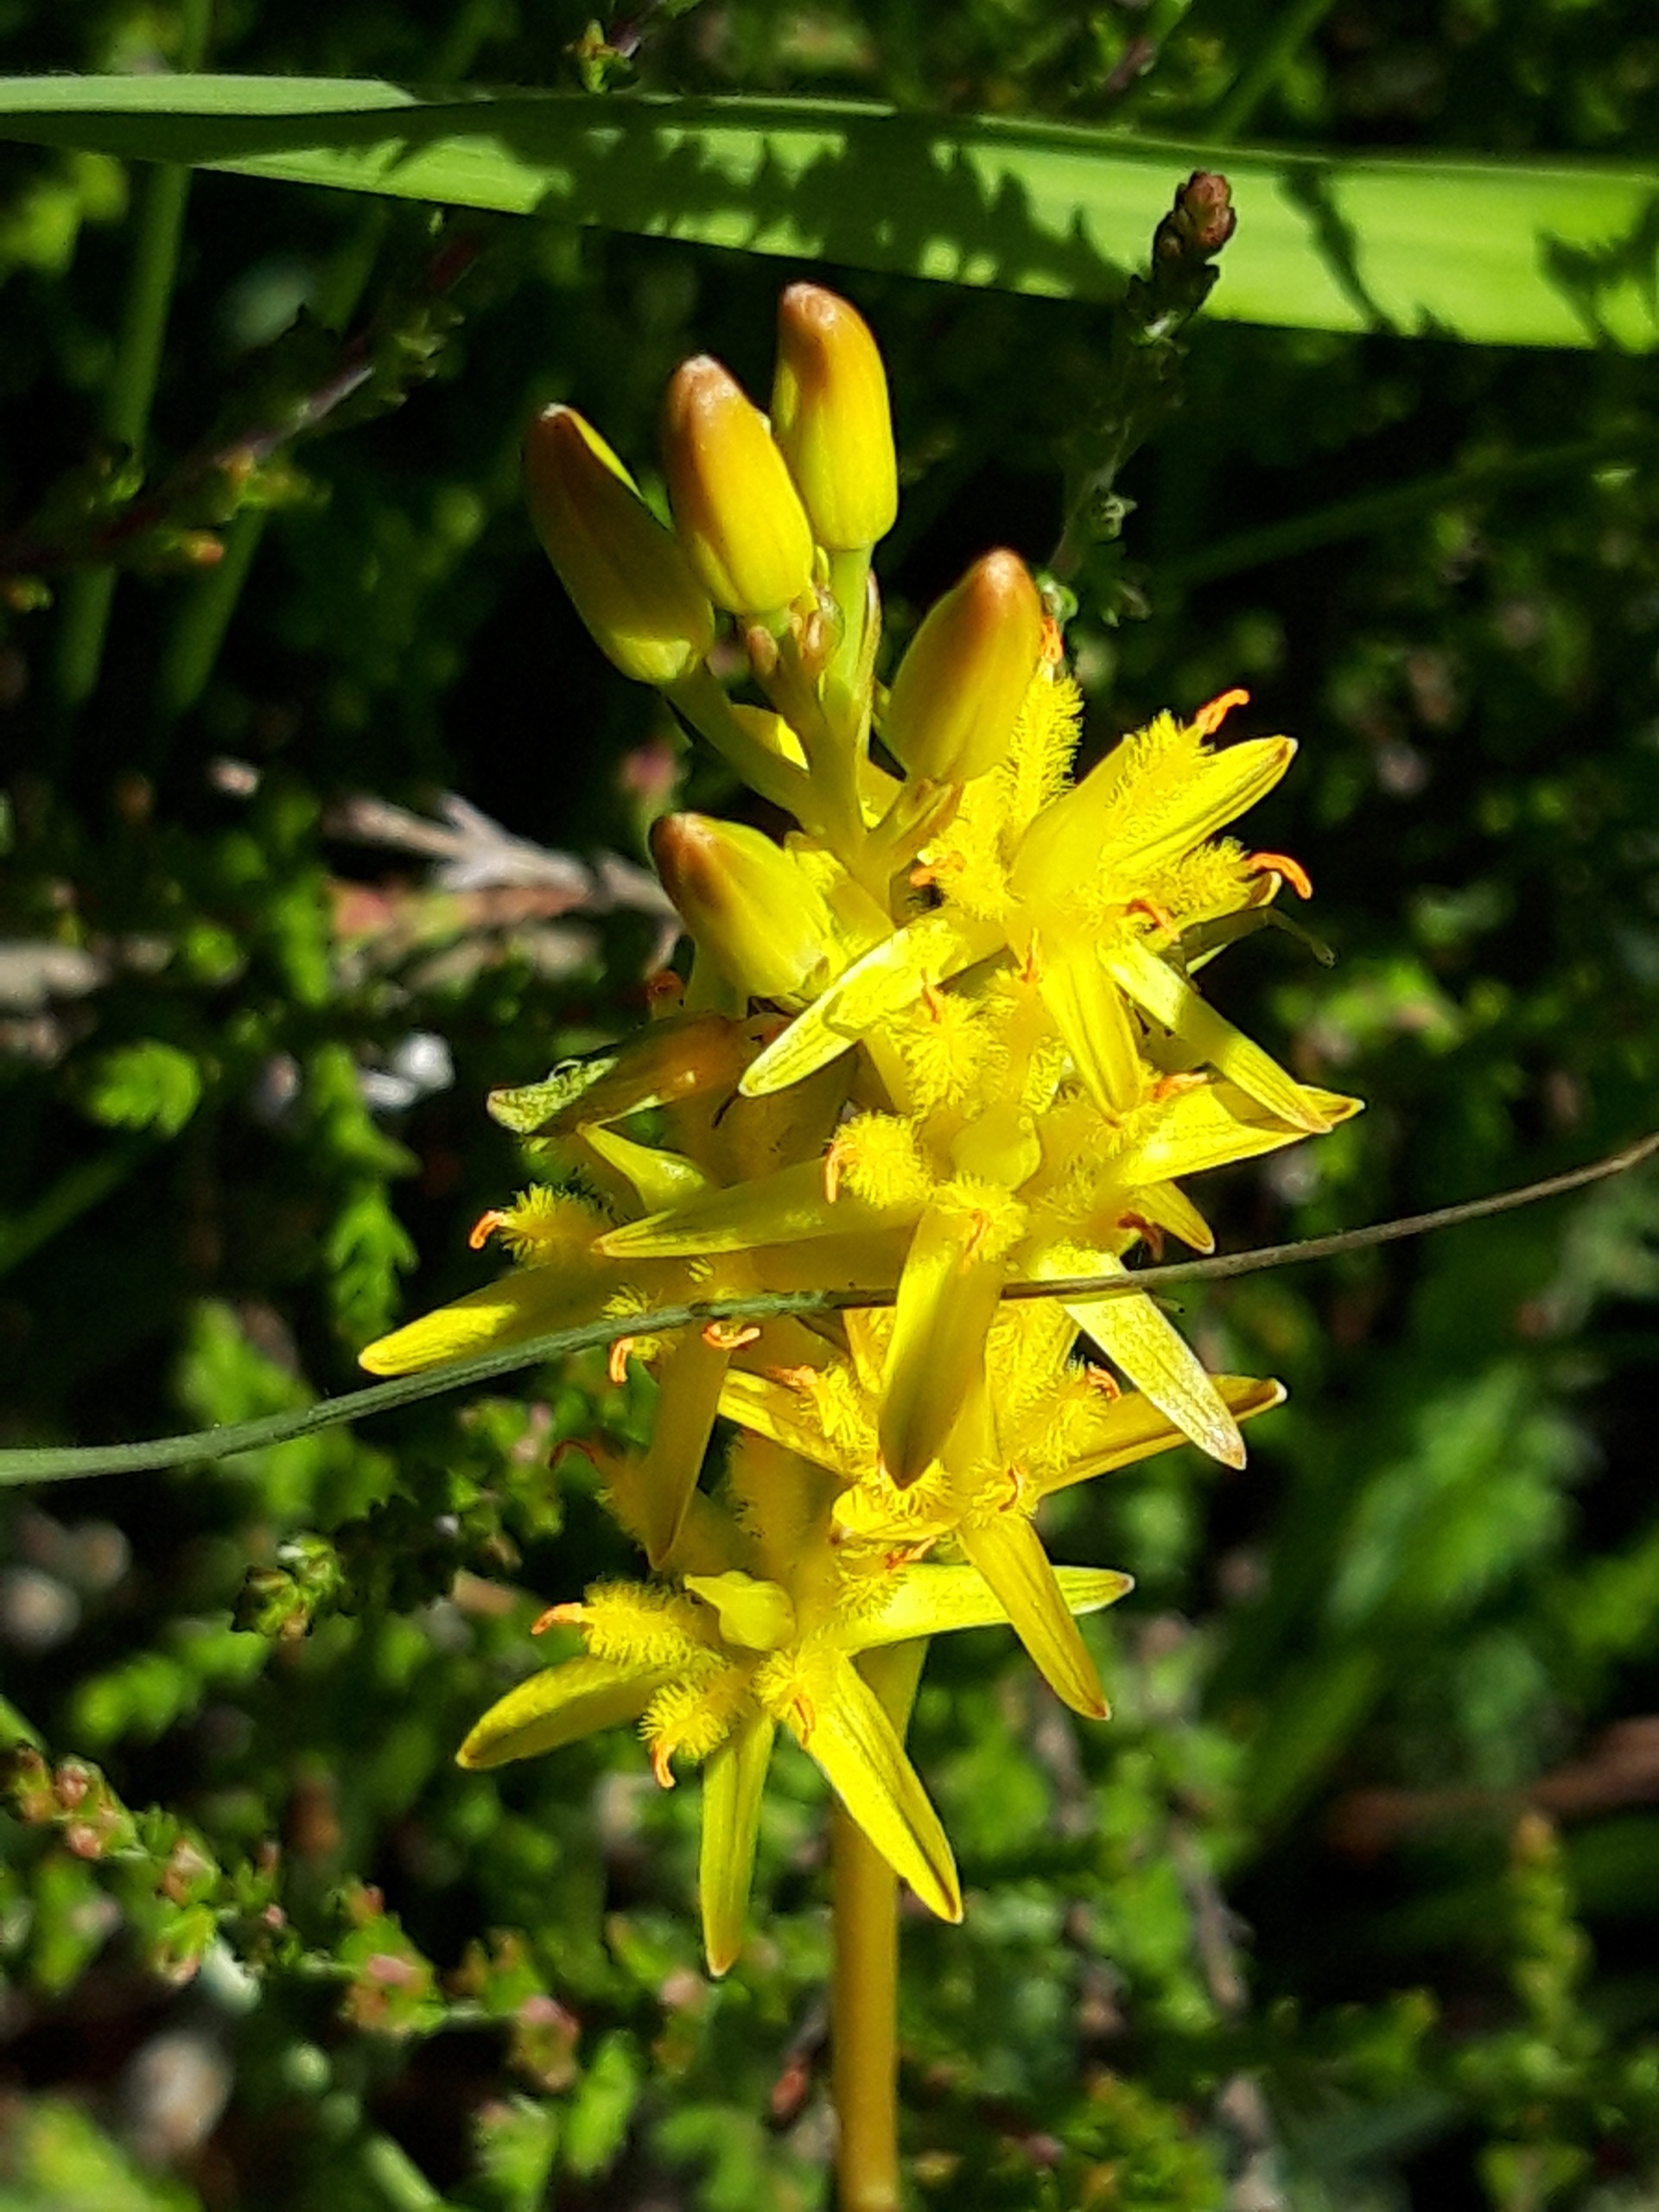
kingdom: Plantae
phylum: Tracheophyta
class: Liliopsida
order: Dioscoreales
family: Nartheciaceae
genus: Narthecium
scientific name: Narthecium ossifragum
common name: Benbræk
